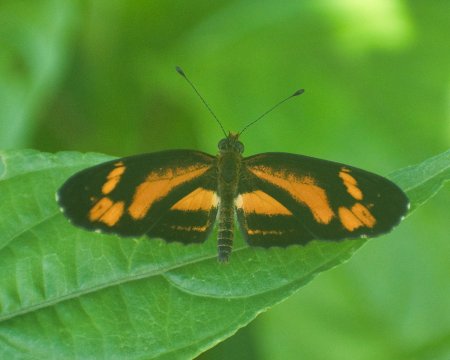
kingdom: Animalia
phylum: Arthropoda
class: Insecta
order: Lepidoptera
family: Nymphalidae
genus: Castilia
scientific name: Castilia eranites
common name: Mimic Crescent
